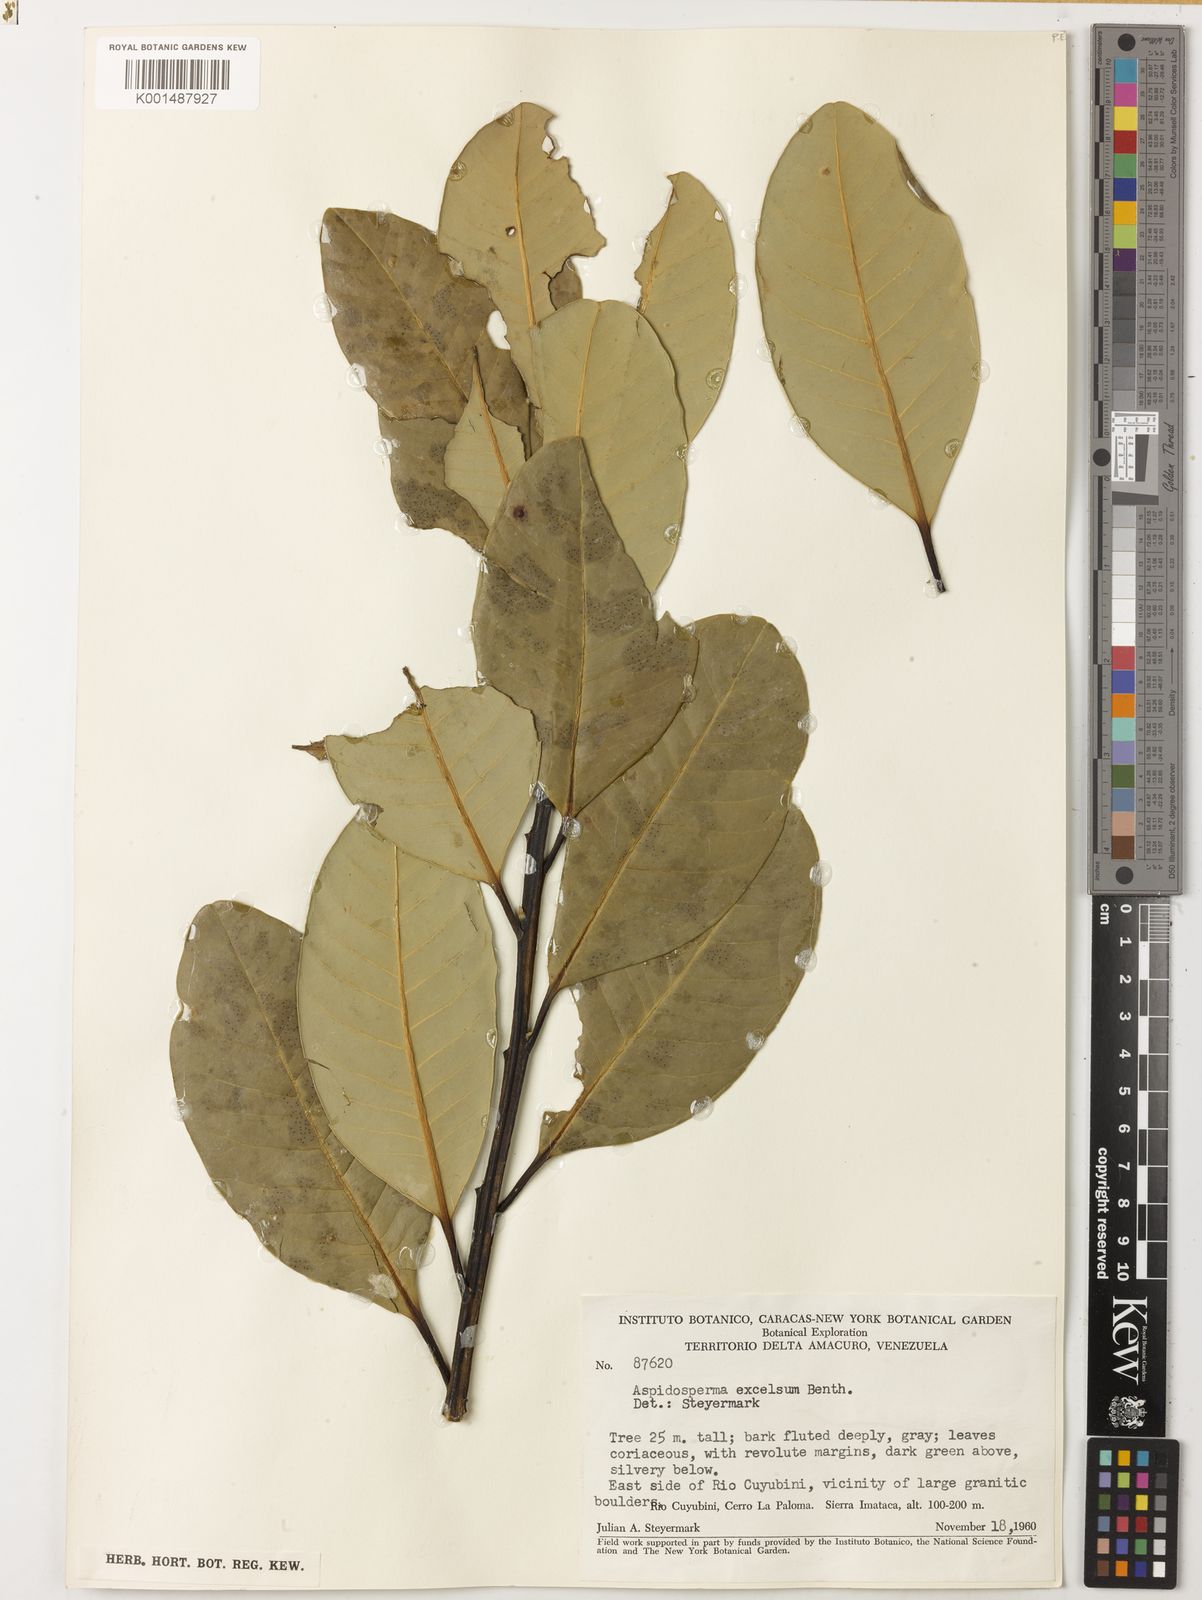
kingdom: Plantae
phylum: Tracheophyta
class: Magnoliopsida
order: Gentianales
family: Apocynaceae
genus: Aspidosperma
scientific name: Aspidosperma excelsum
